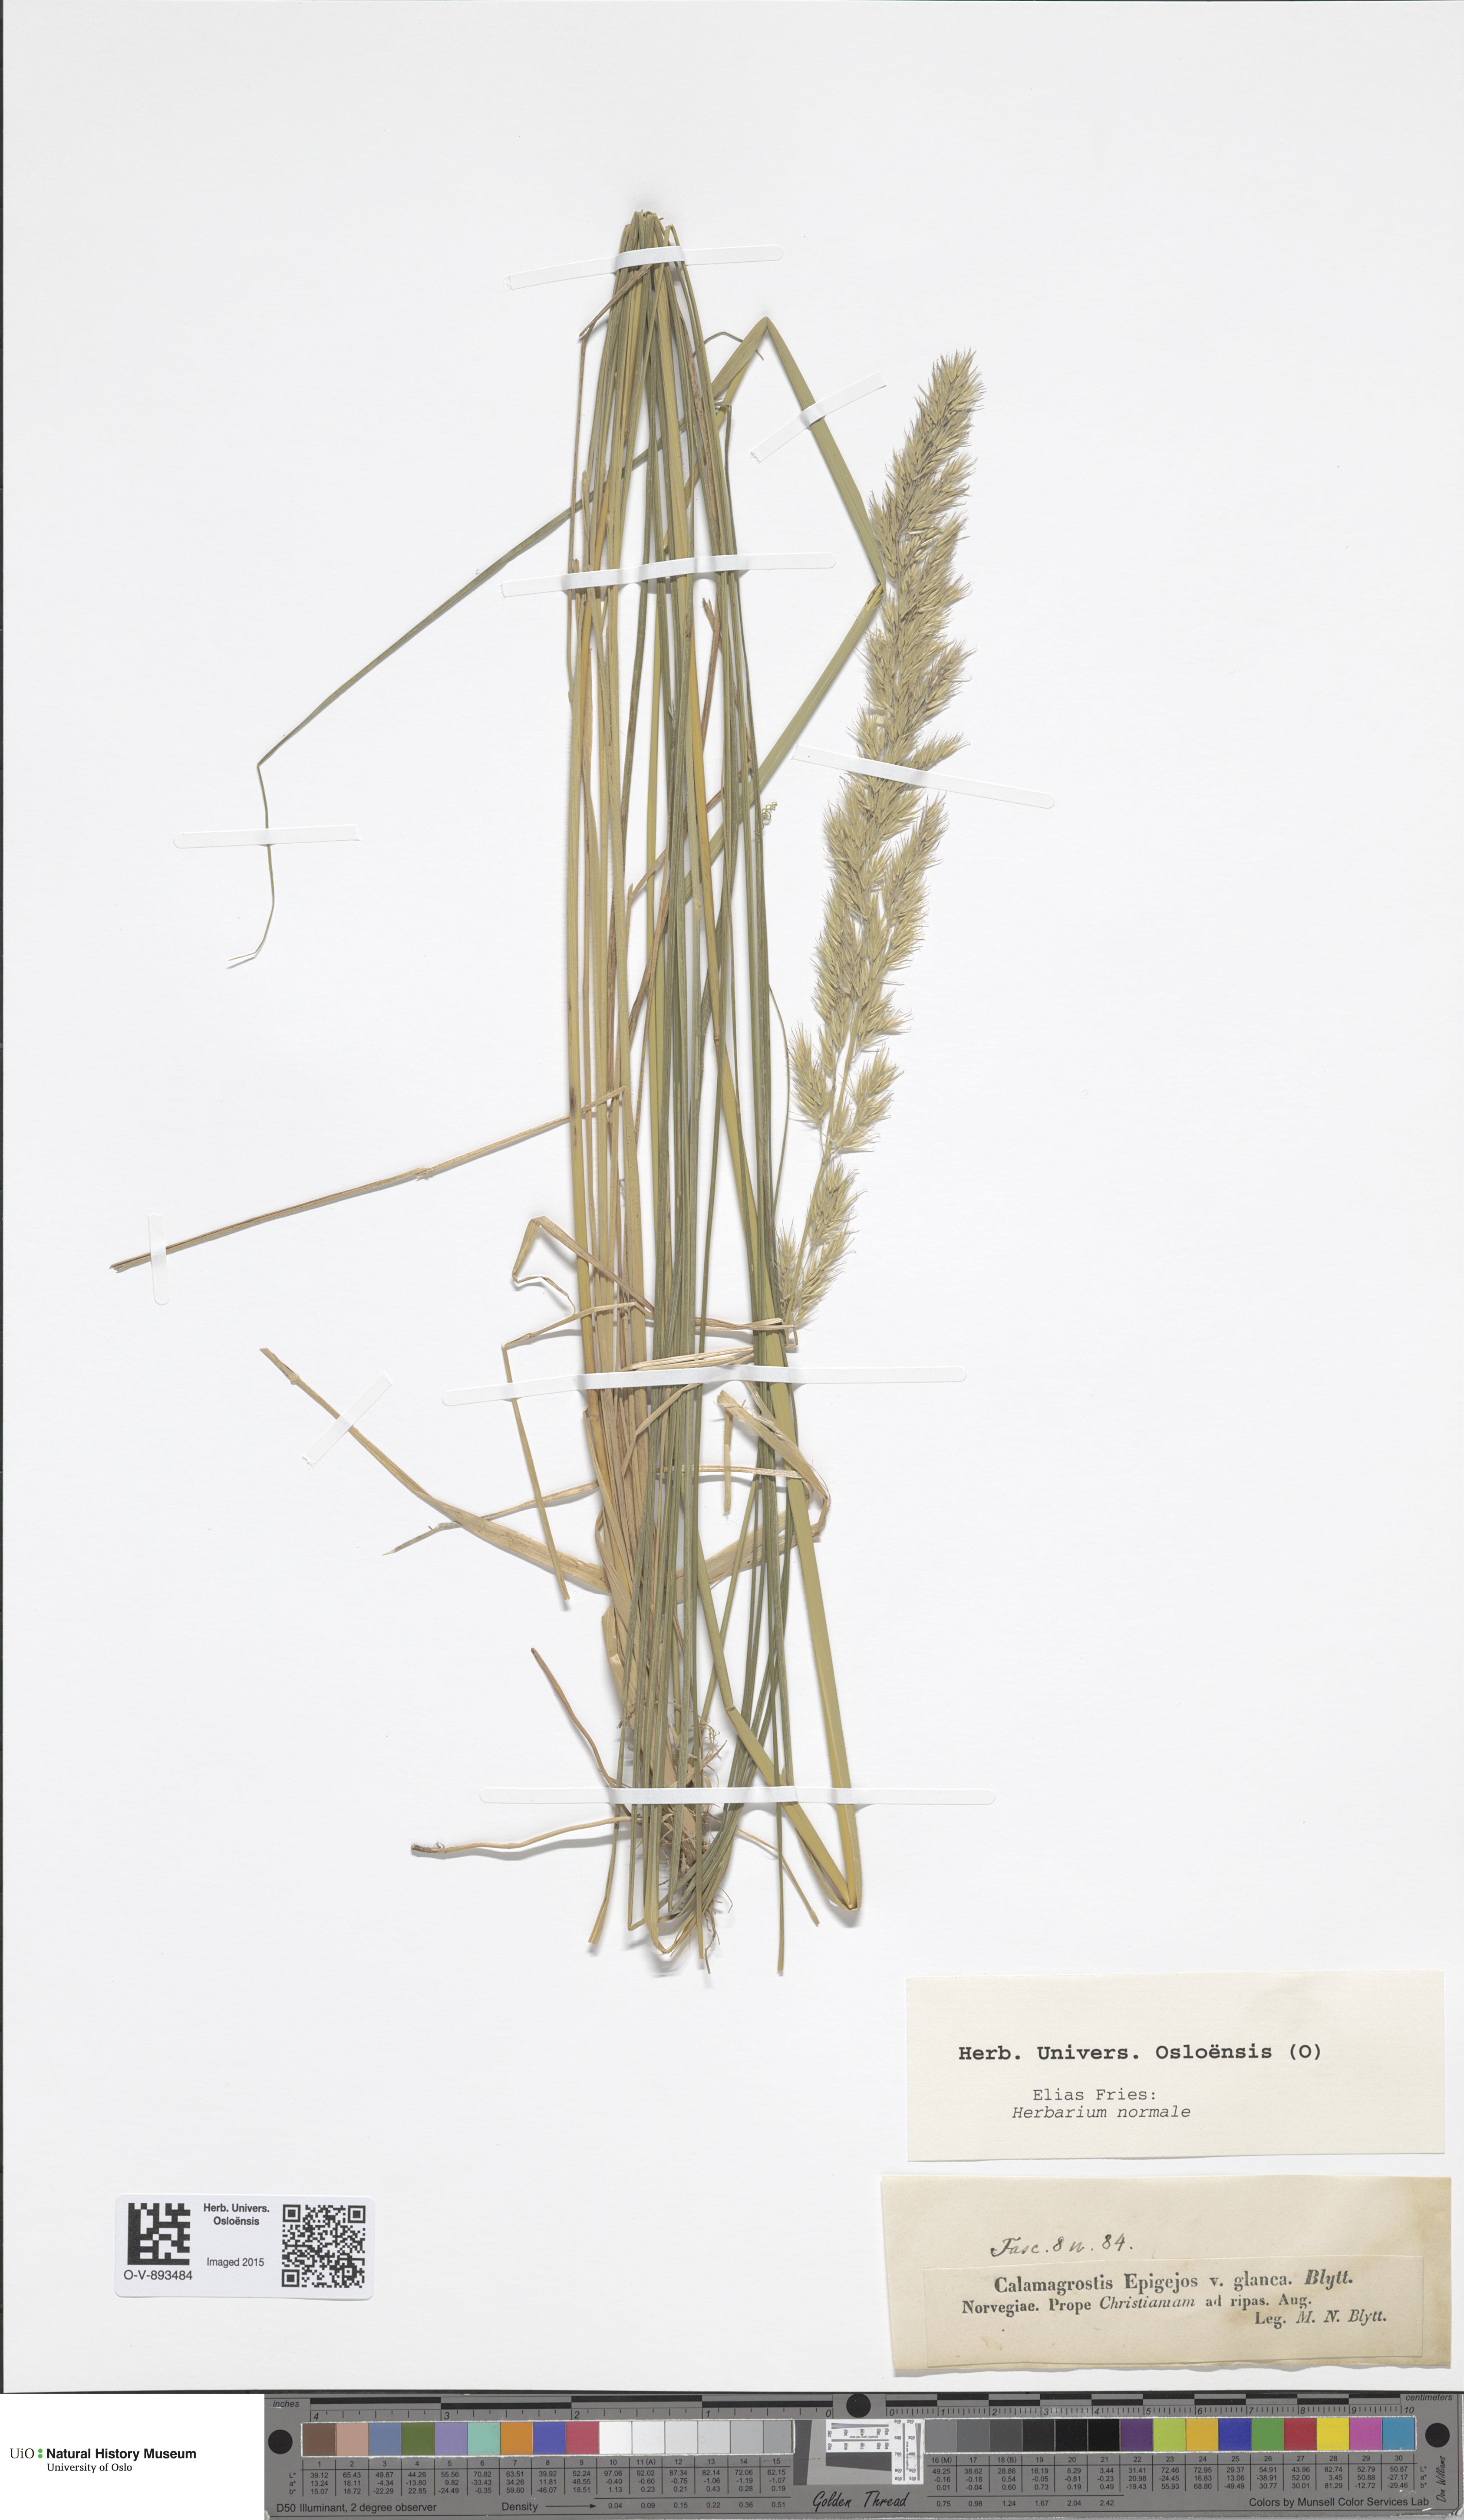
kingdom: Plantae
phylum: Tracheophyta
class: Liliopsida
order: Poales
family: Poaceae
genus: Calamagrostis
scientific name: Calamagrostis epigejos
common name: Wood small-reed
